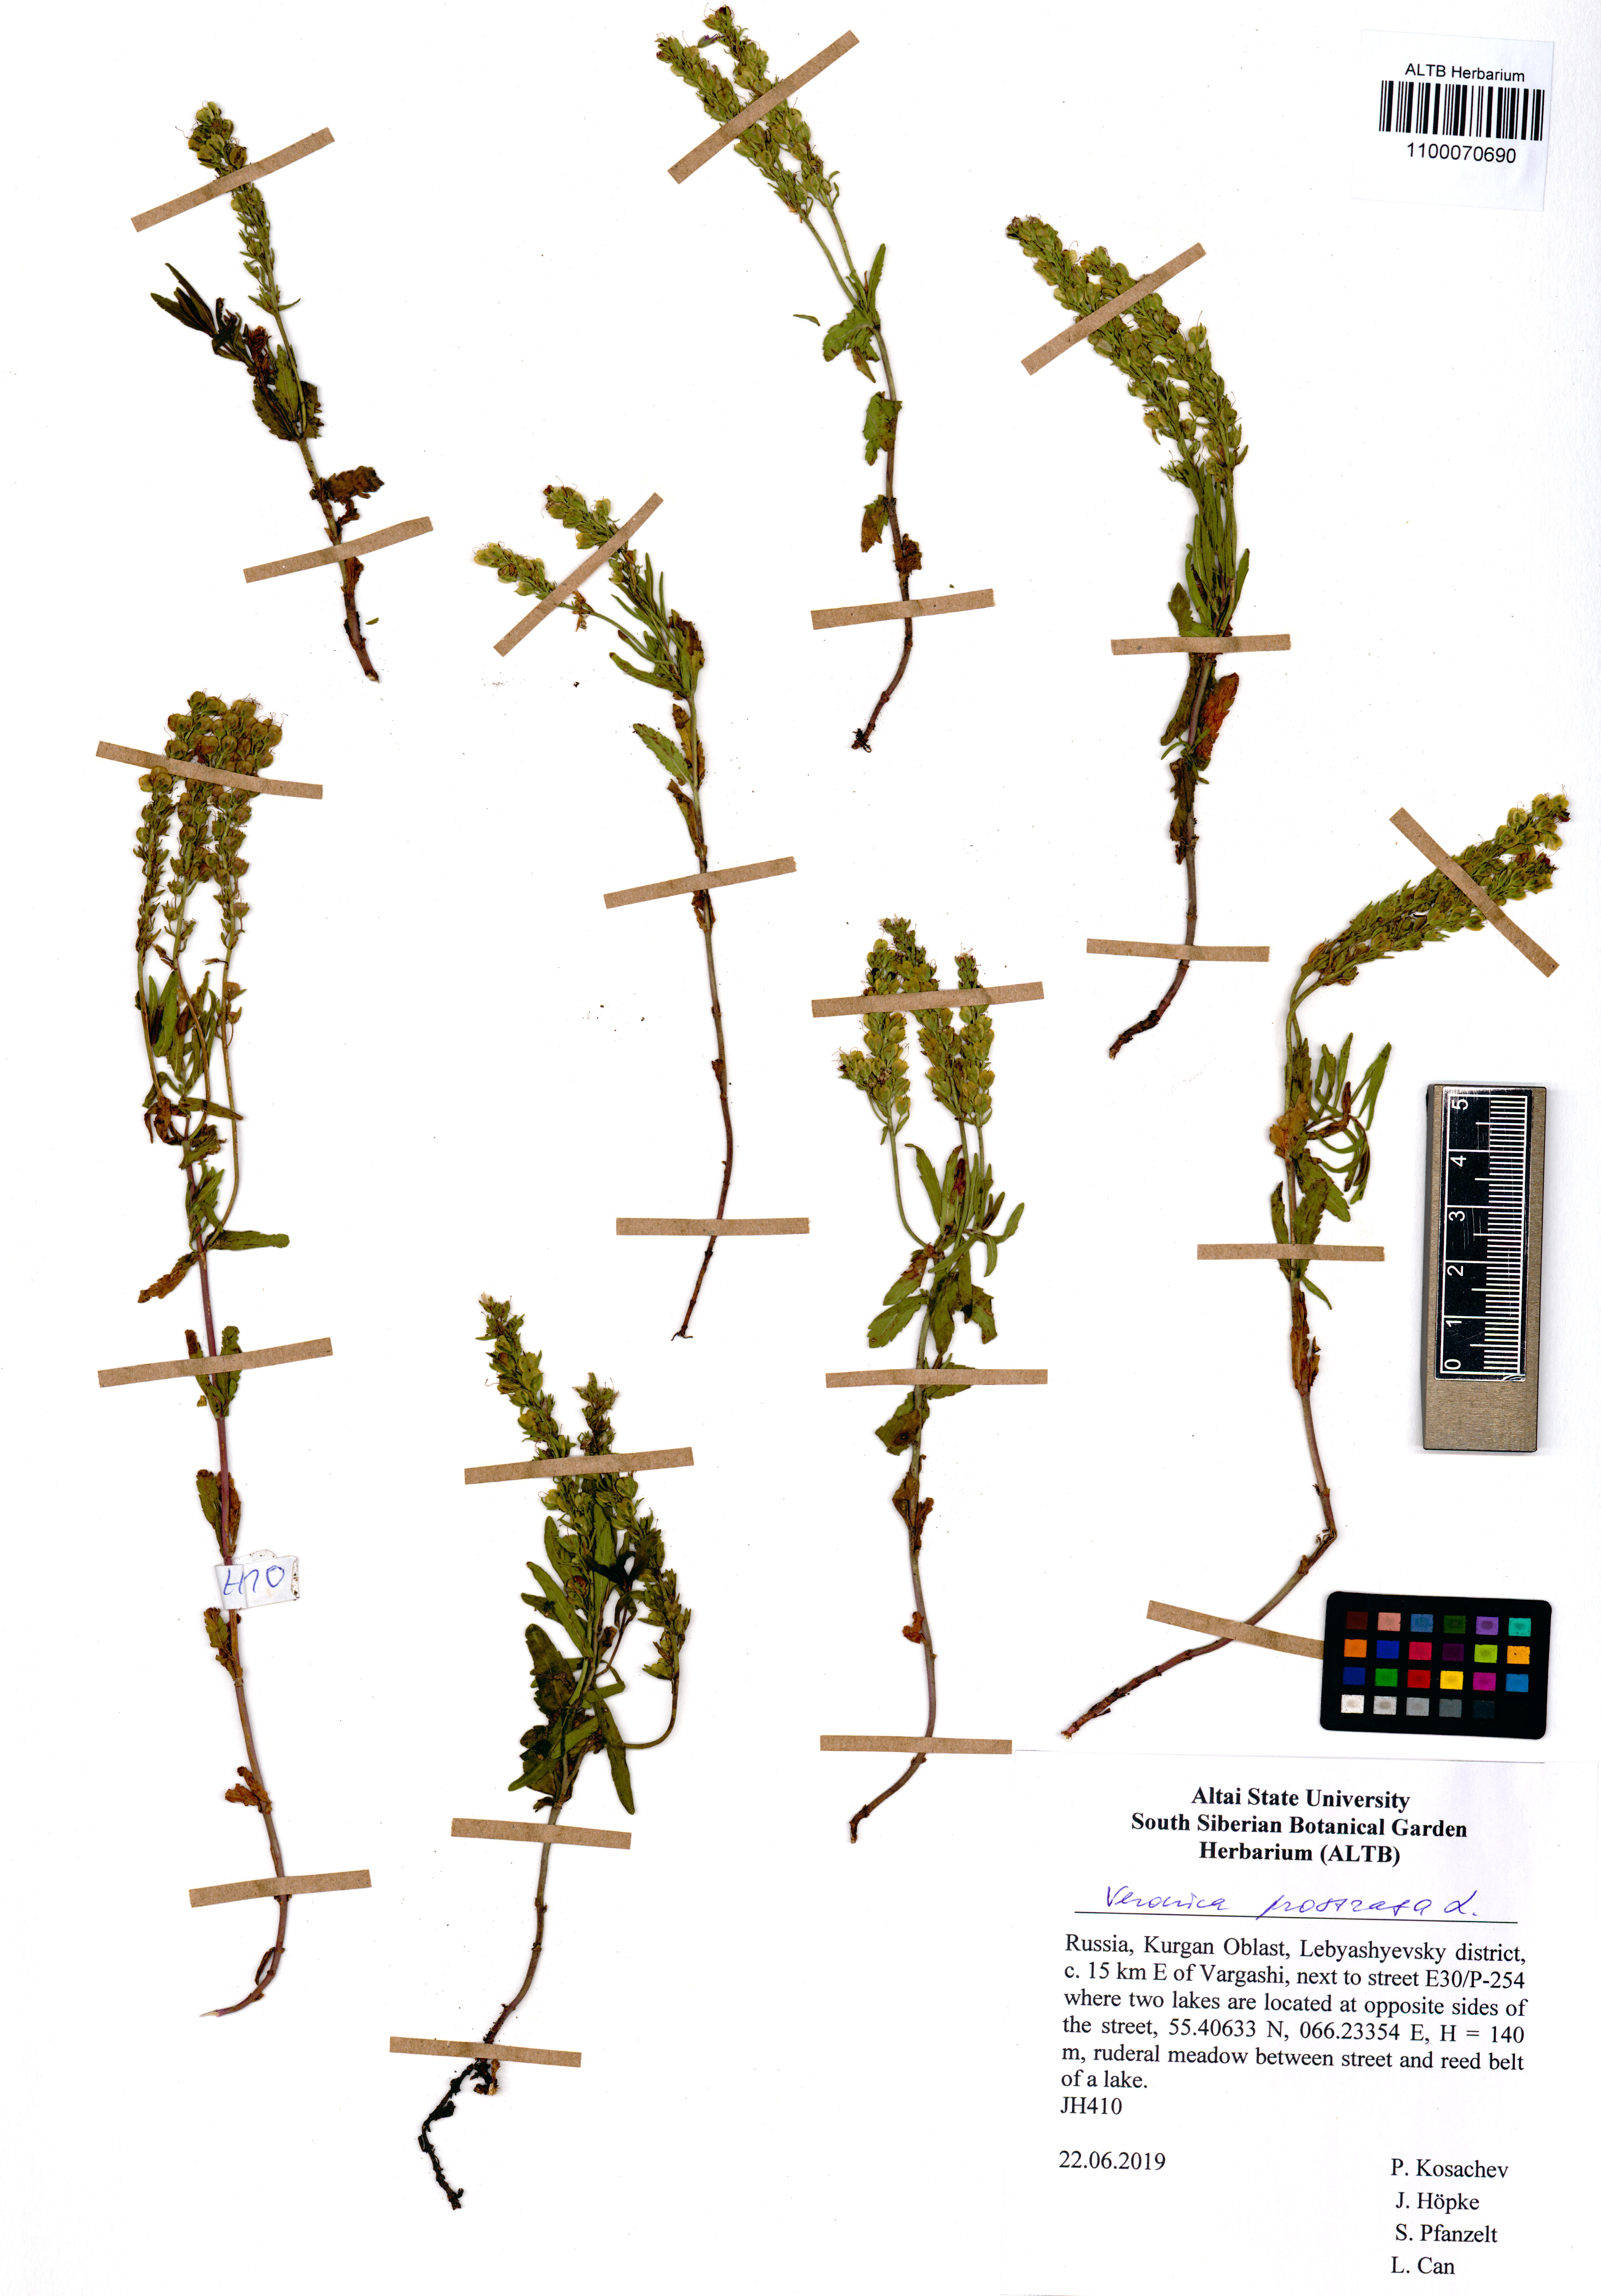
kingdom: Plantae
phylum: Tracheophyta
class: Magnoliopsida
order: Lamiales
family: Plantaginaceae
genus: Veronica
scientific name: Veronica prostrata
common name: Prostrate speedwell
